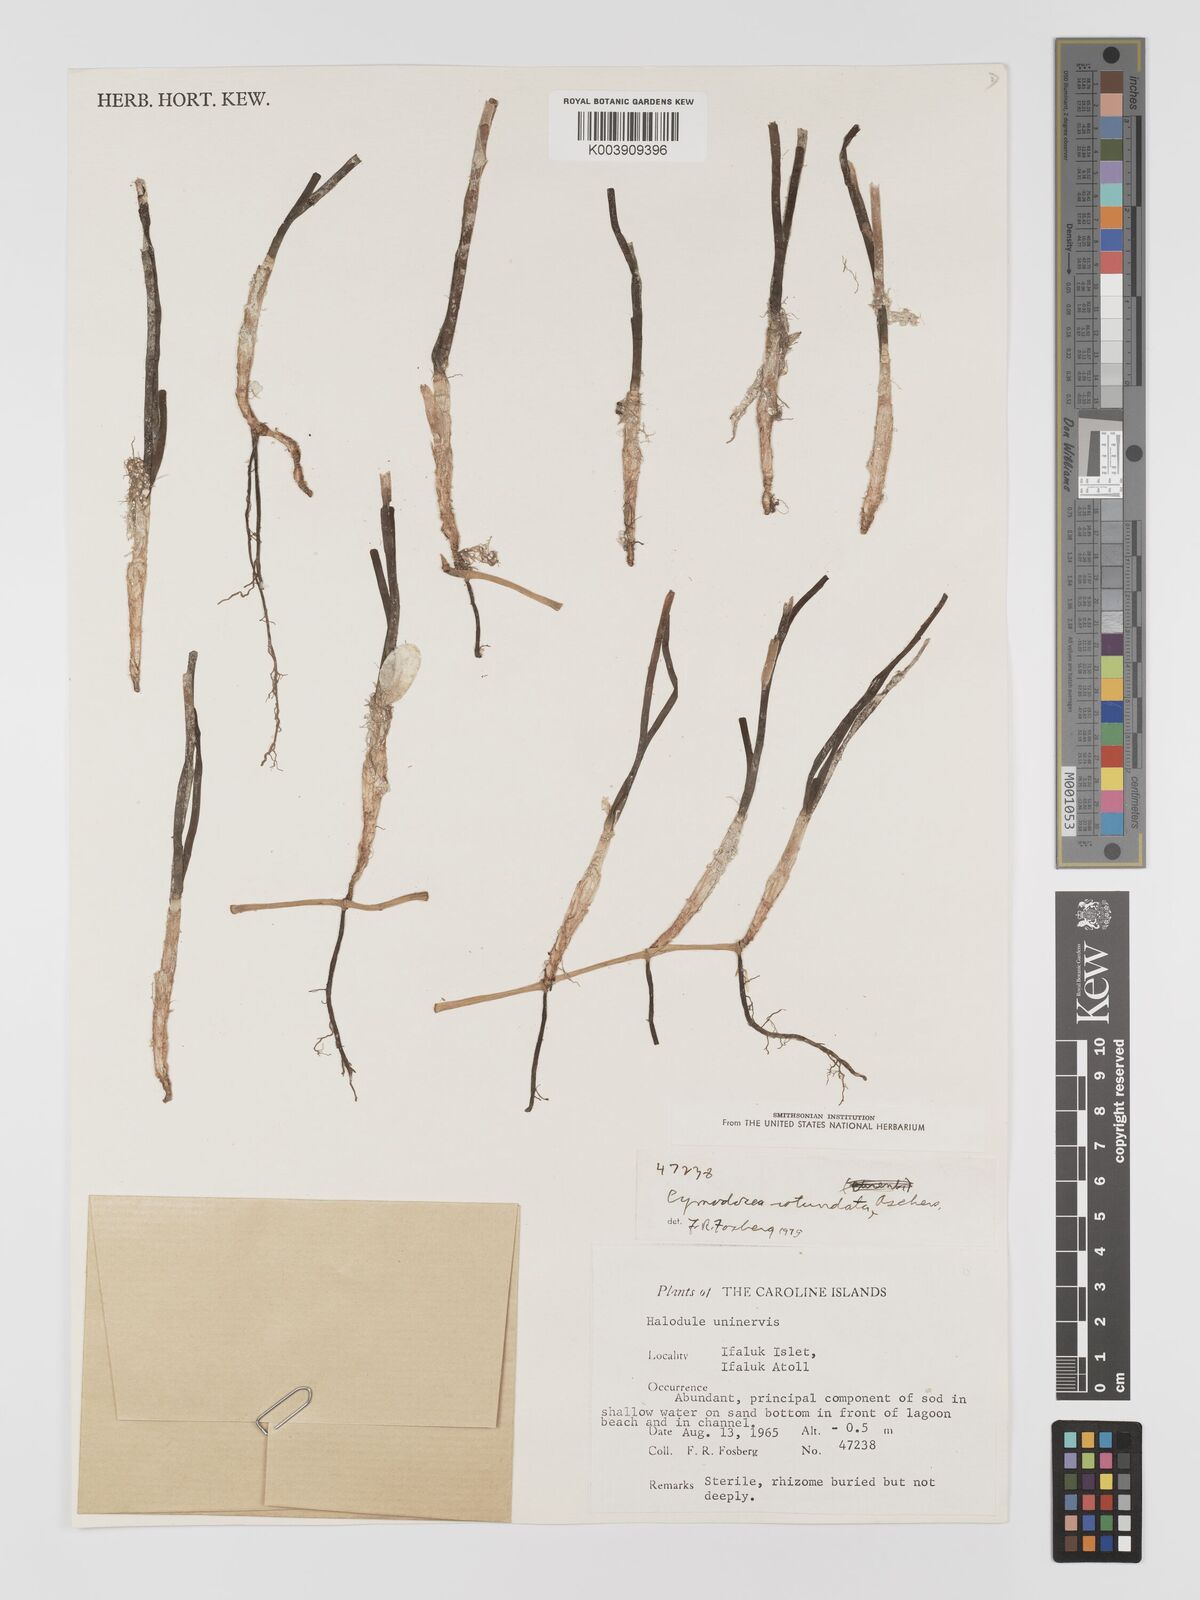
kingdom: Plantae
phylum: Tracheophyta
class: Liliopsida
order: Alismatales
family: Cymodoceaceae
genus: Cymodocea
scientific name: Cymodocea rotundata
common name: Species code: cr
